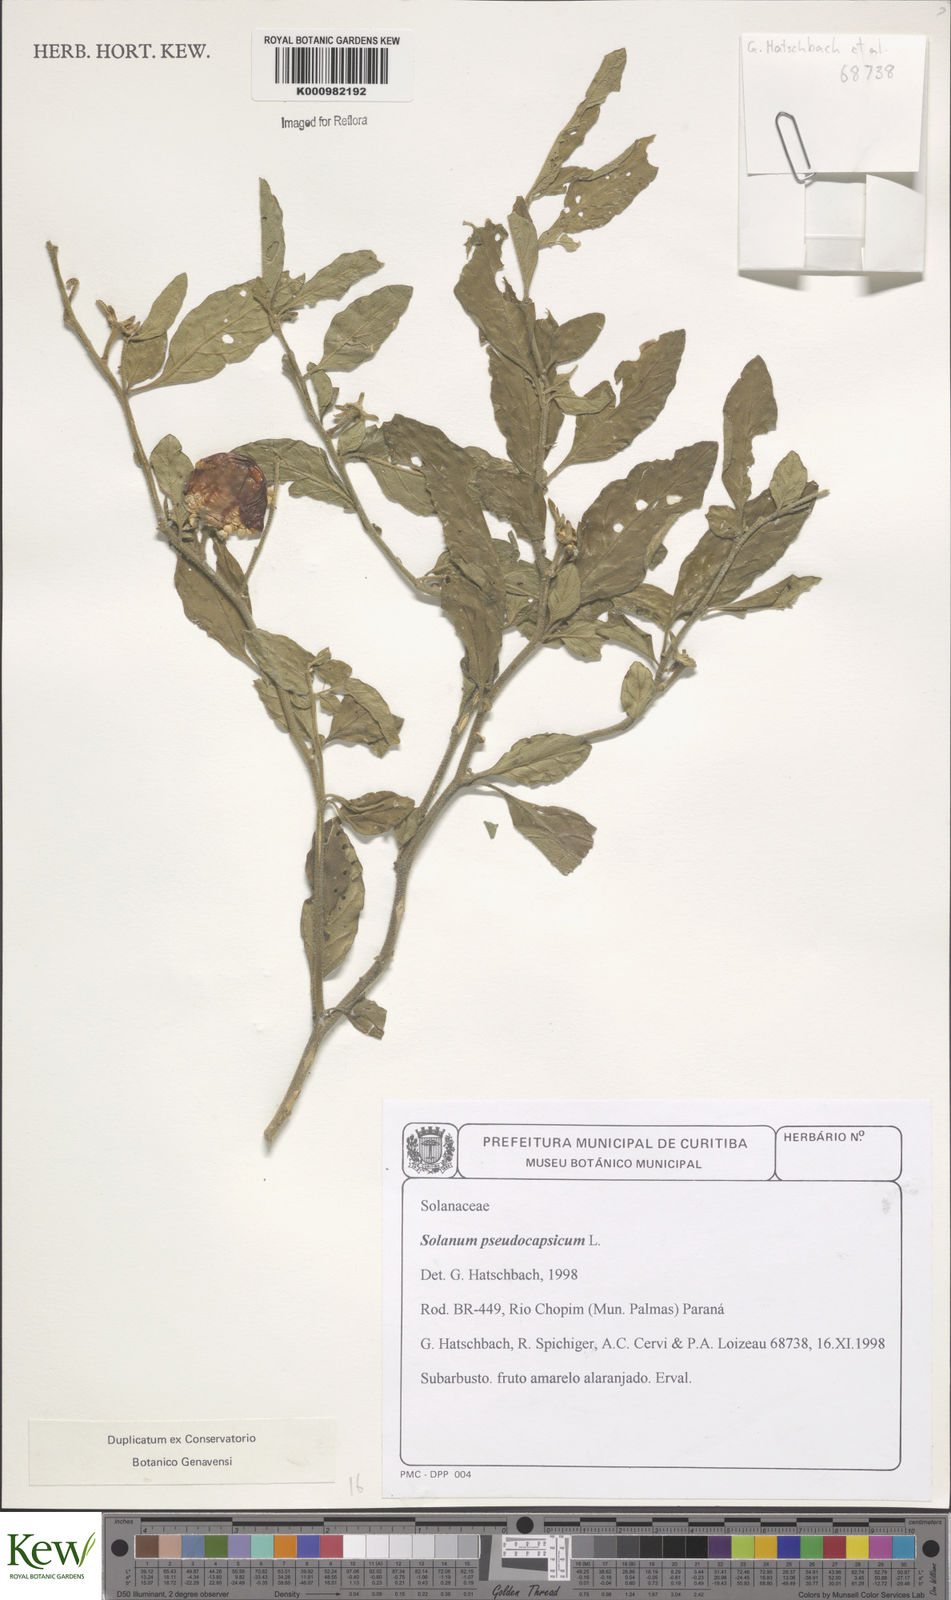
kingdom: Plantae
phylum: Tracheophyta
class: Magnoliopsida
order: Solanales
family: Solanaceae
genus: Solanum
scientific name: Solanum pseudocapsicum
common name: Jerusalem cherry
